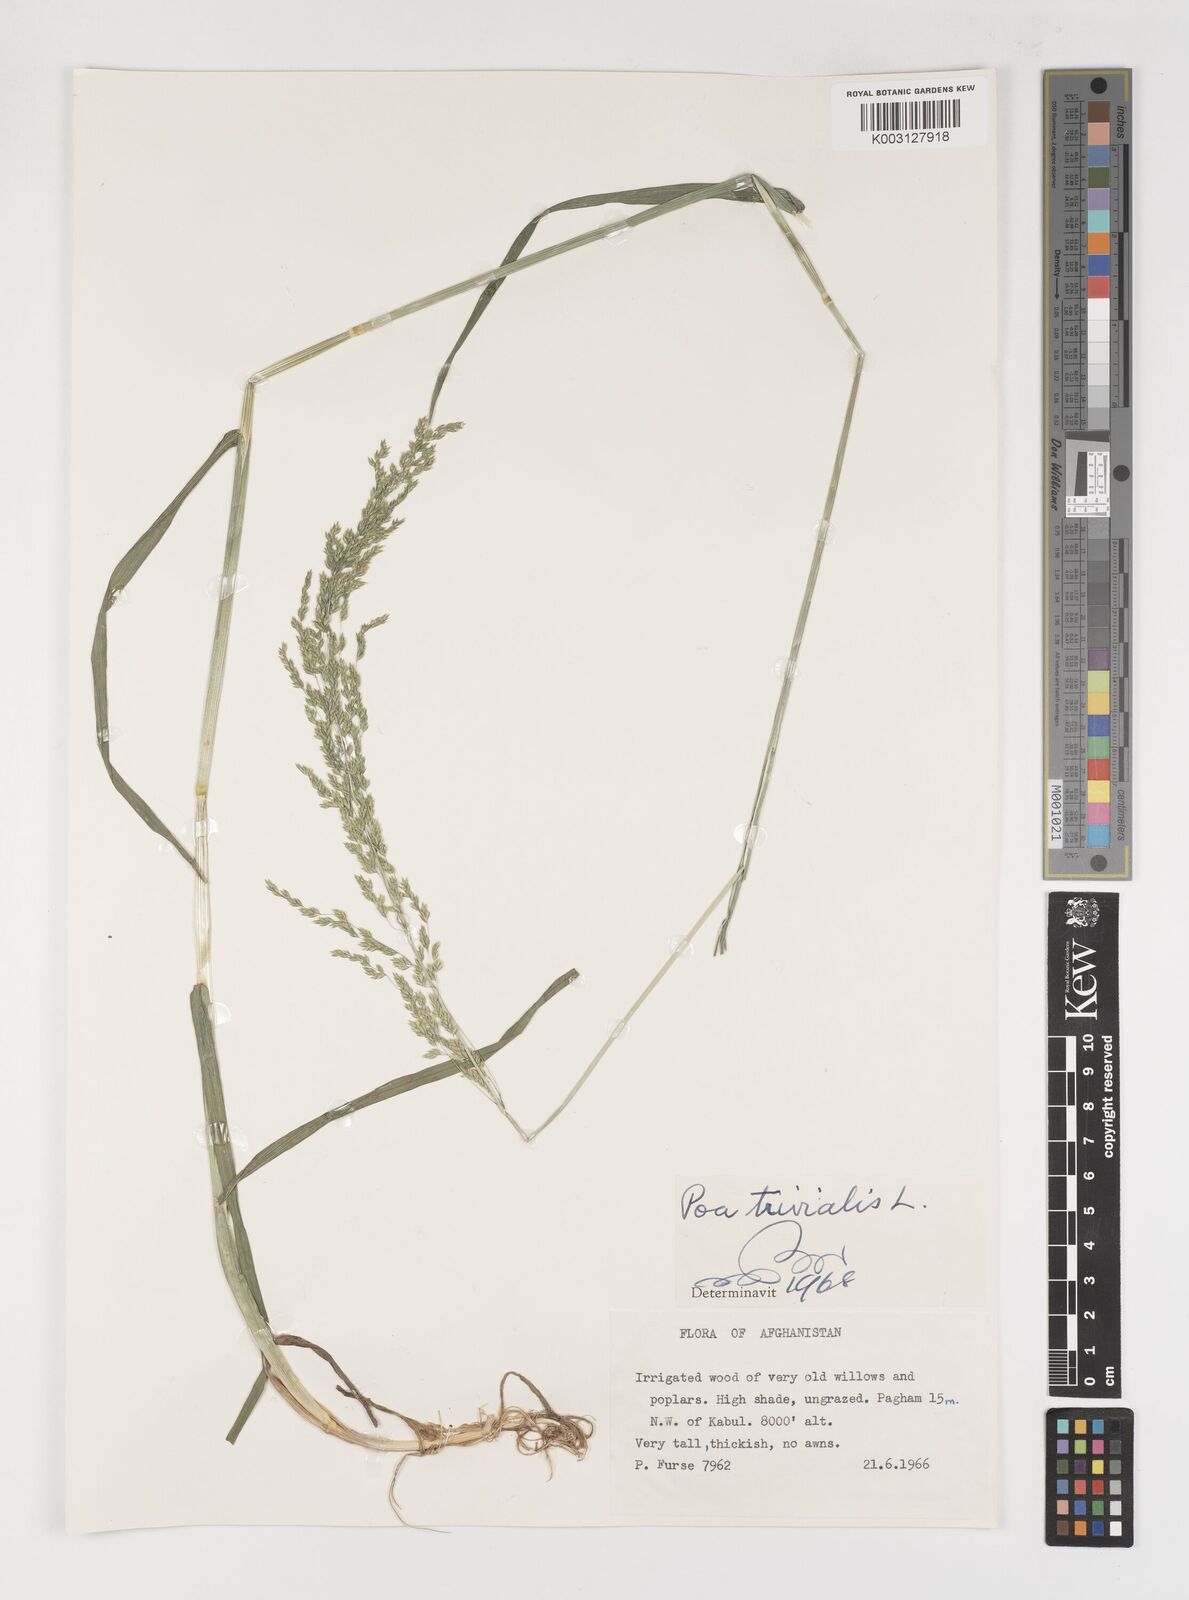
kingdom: Plantae
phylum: Tracheophyta
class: Liliopsida
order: Poales
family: Poaceae
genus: Poa
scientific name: Poa trivialis
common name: Rough bluegrass
